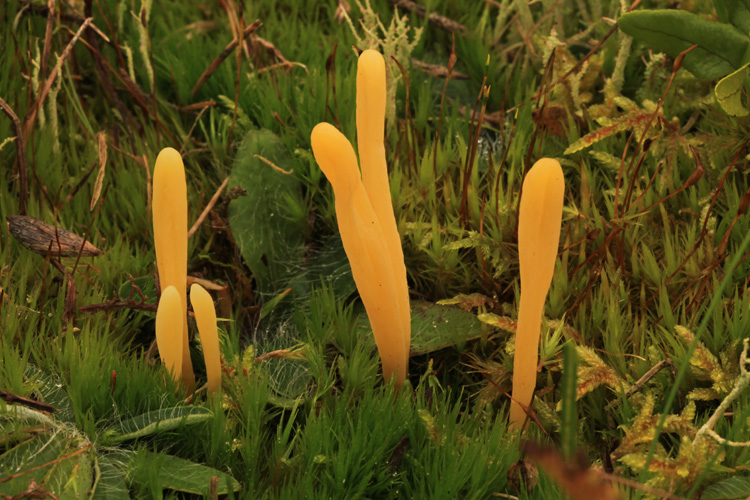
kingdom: Fungi
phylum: Basidiomycota
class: Agaricomycetes
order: Agaricales
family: Clavariaceae
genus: Clavaria
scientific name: Clavaria argillacea
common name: lerfarvet køllesvamp
